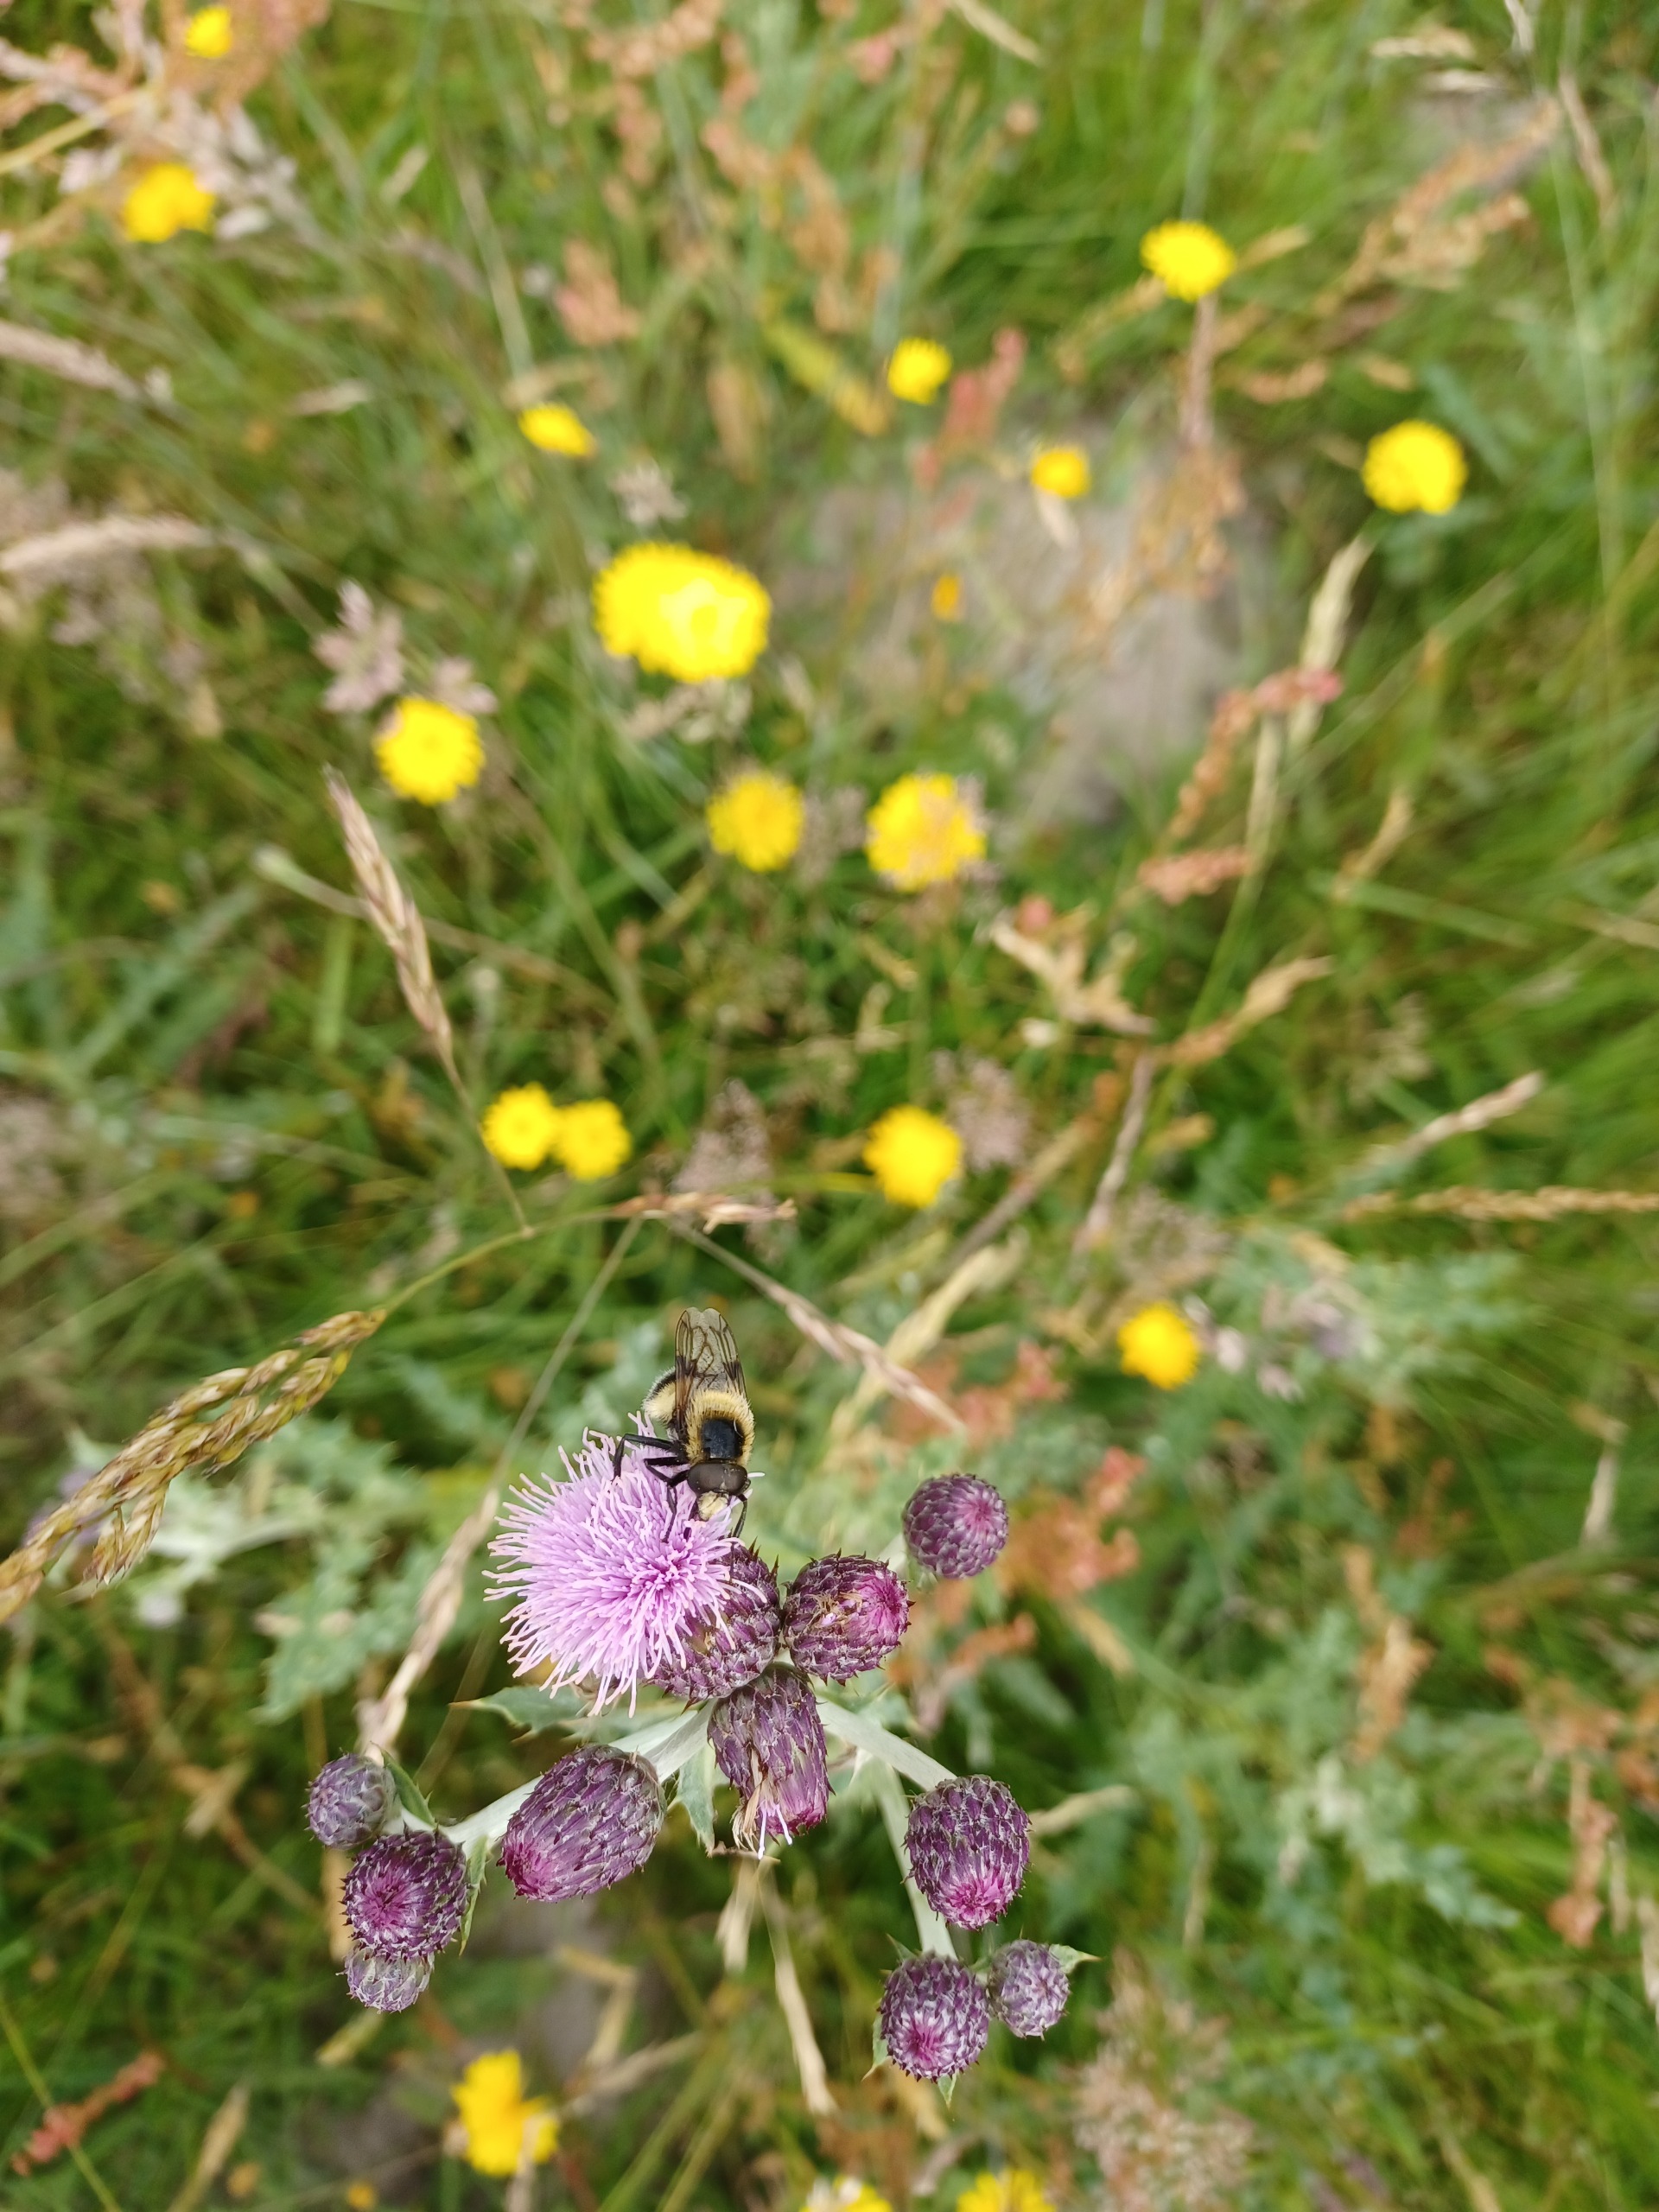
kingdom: Animalia
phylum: Arthropoda
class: Insecta
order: Diptera
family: Syrphidae
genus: Volucella
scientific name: Volucella bombylans
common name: Foranderlig humlesvirreflue
